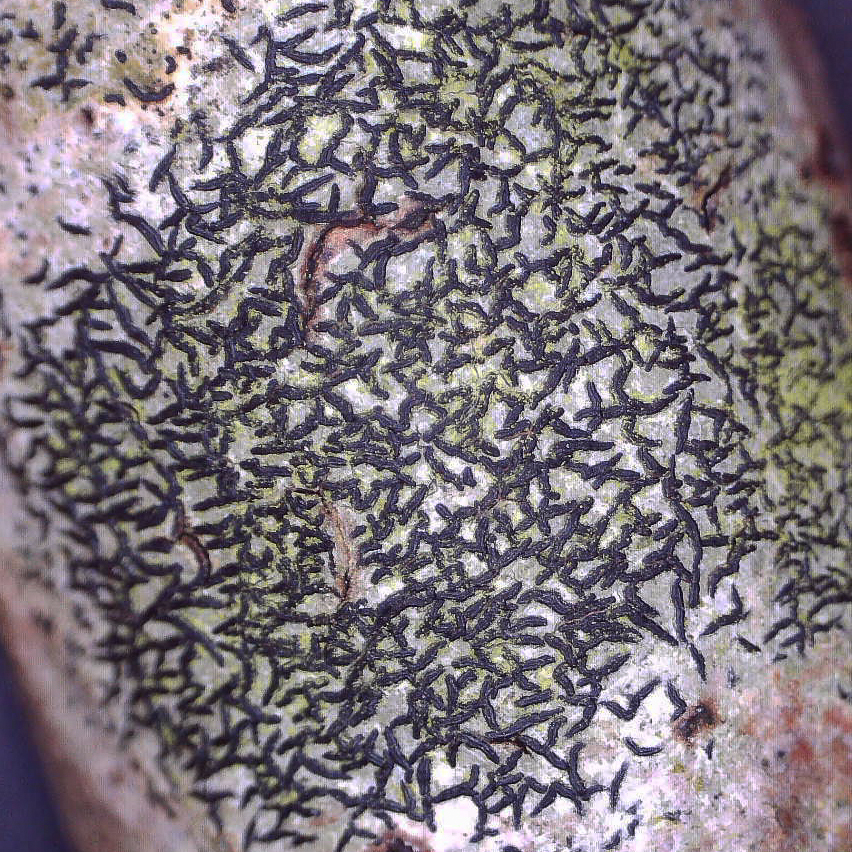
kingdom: Fungi
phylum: Ascomycota
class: Arthoniomycetes
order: Arthoniales
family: Arthoniaceae
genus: Arthonia
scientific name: Arthonia atra
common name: sort bogstavlav
